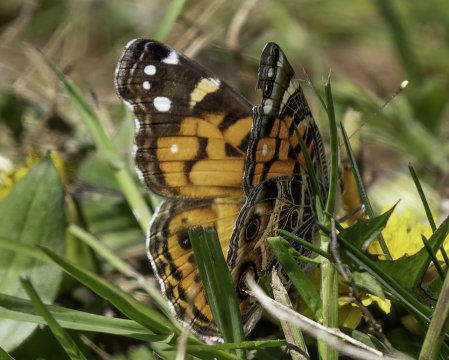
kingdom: Animalia
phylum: Arthropoda
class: Insecta
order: Lepidoptera
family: Nymphalidae
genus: Vanessa
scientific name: Vanessa virginiensis
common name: American Lady
